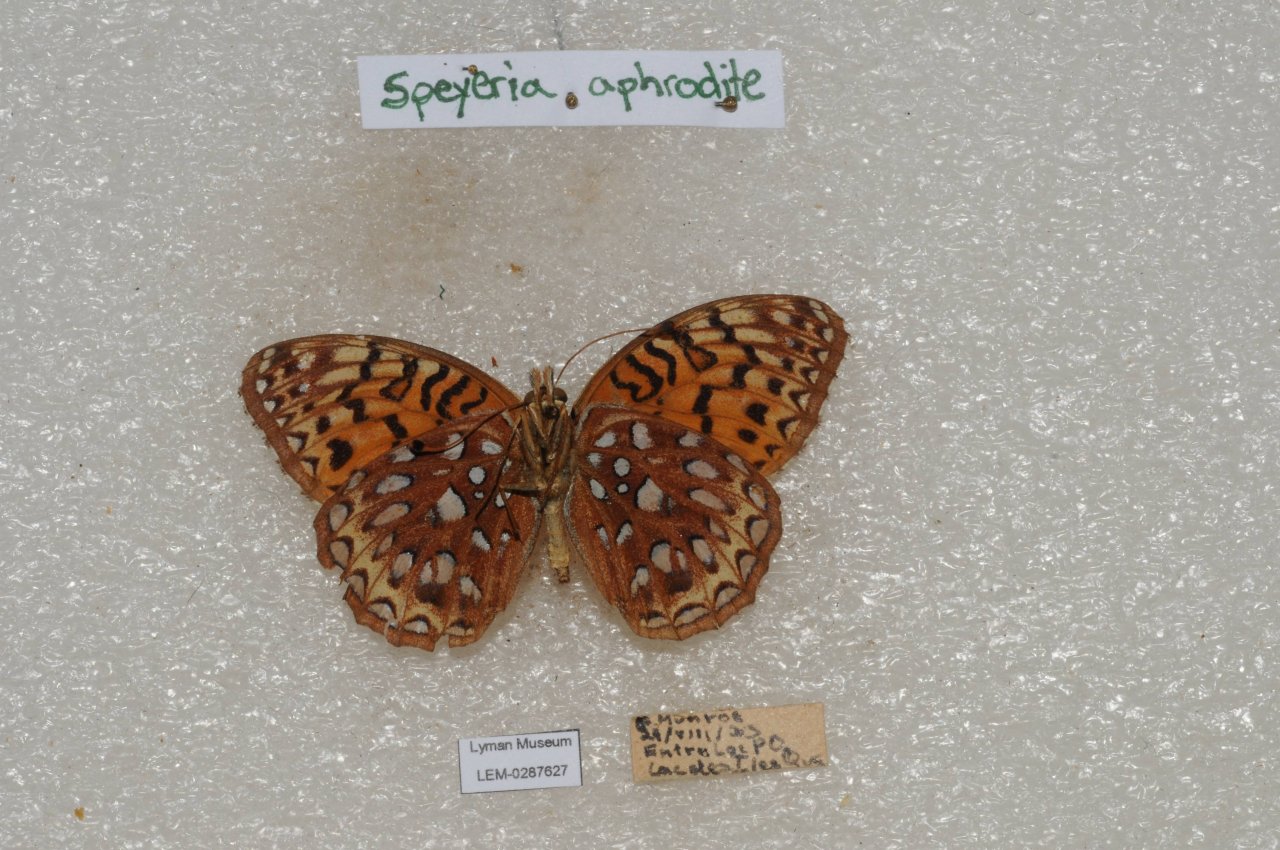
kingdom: Animalia
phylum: Arthropoda
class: Insecta
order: Lepidoptera
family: Nymphalidae
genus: Speyeria
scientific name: Speyeria aphrodite
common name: Aphrodite Fritillary
